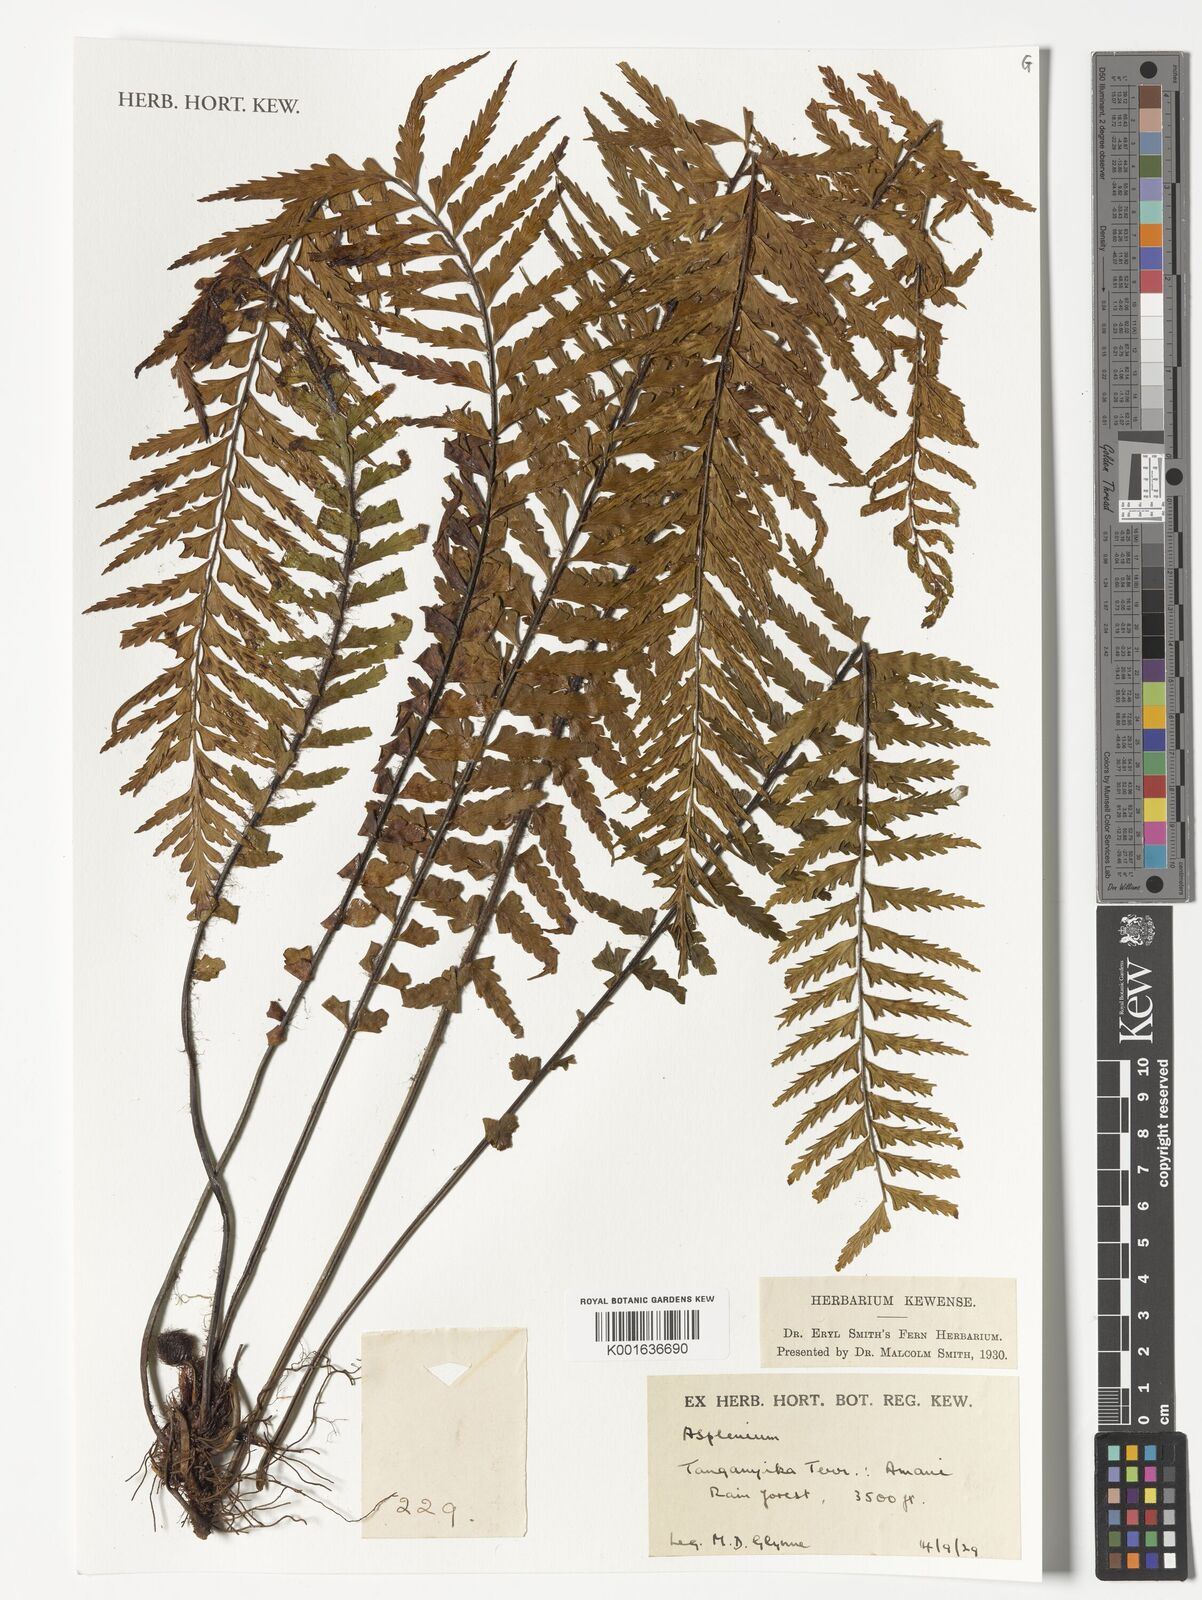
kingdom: Plantae
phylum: Tracheophyta
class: Polypodiopsida
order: Polypodiales
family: Aspleniaceae
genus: Asplenium
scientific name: Asplenium
